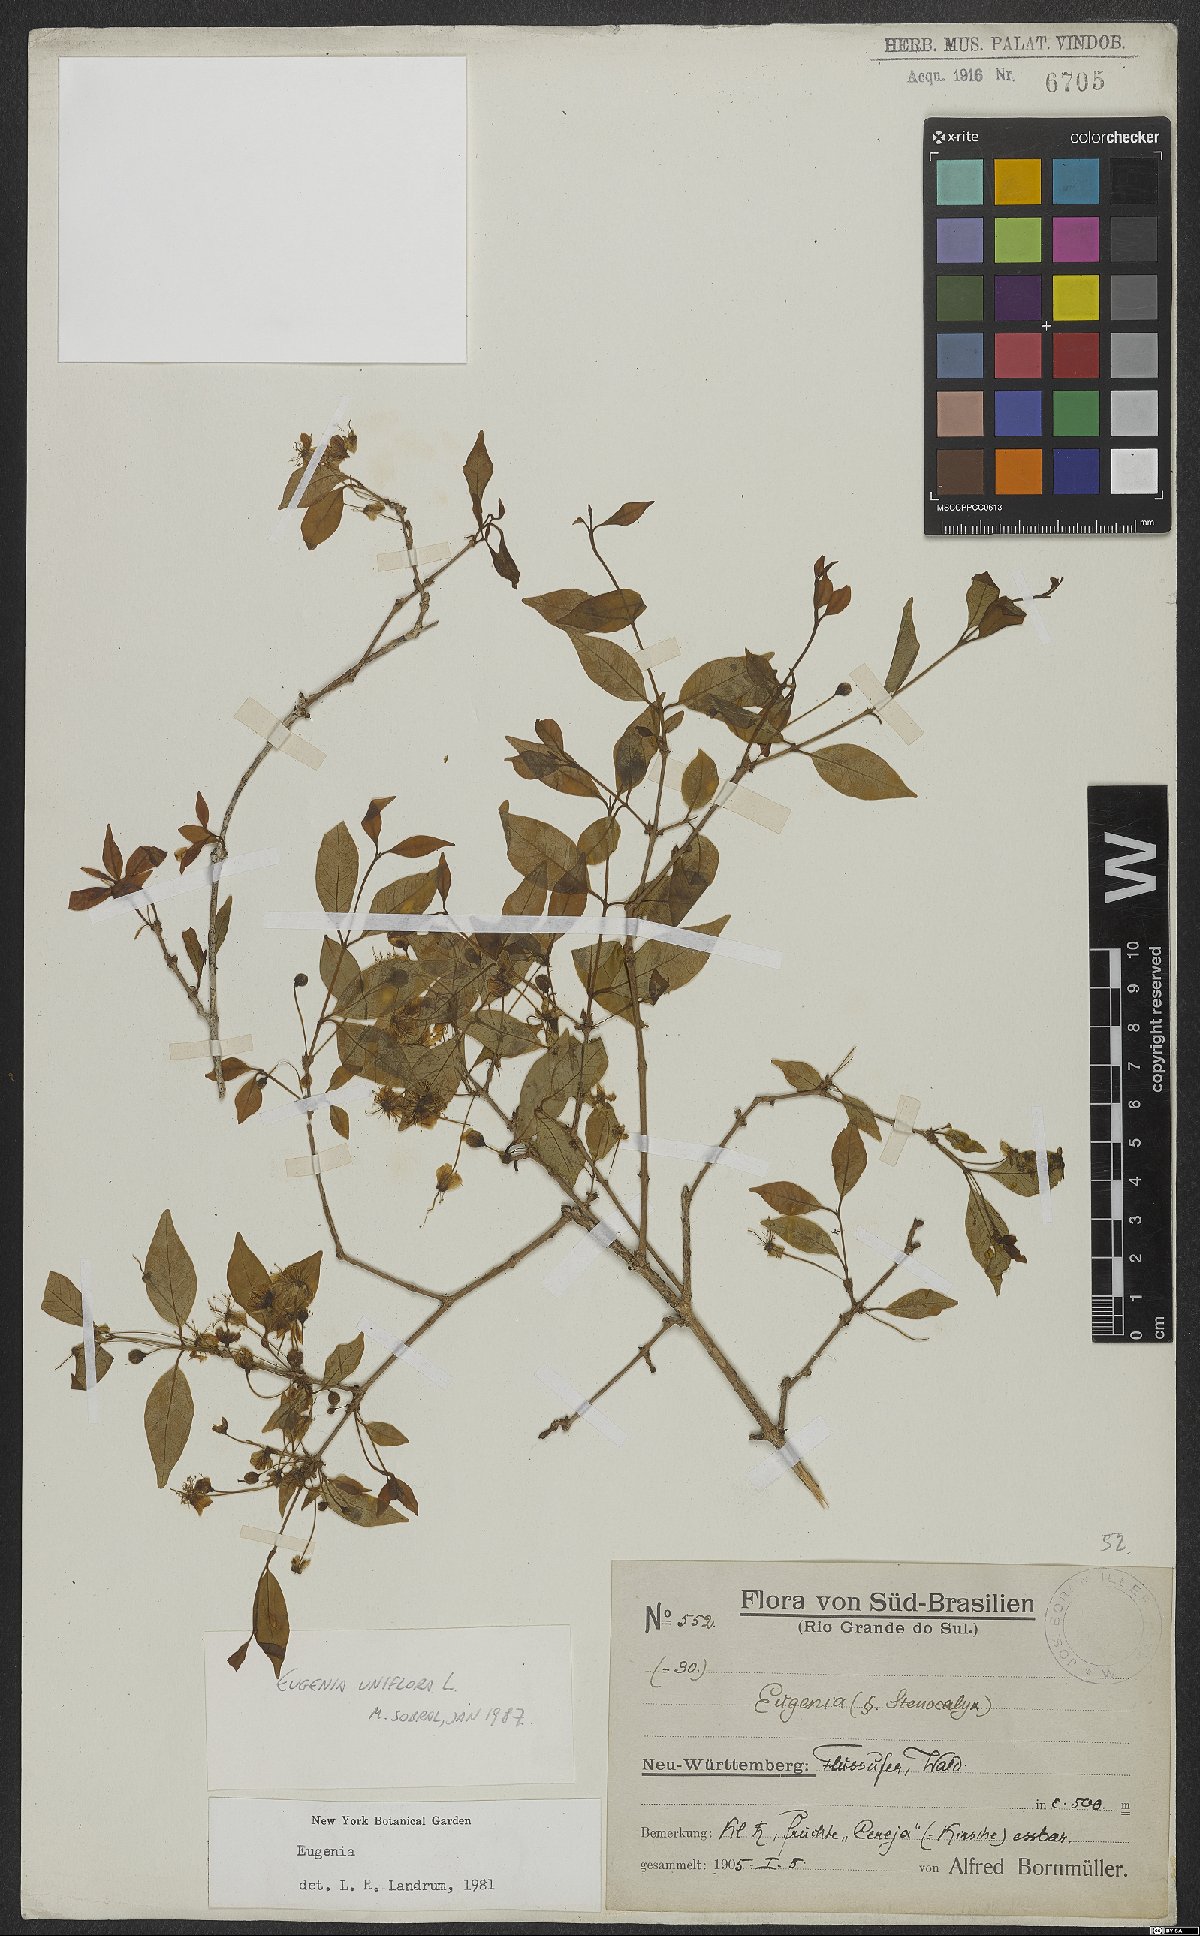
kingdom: Plantae
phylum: Tracheophyta
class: Magnoliopsida
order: Myrtales
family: Myrtaceae
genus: Eugenia
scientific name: Eugenia uniflora
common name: Surinam cherry
